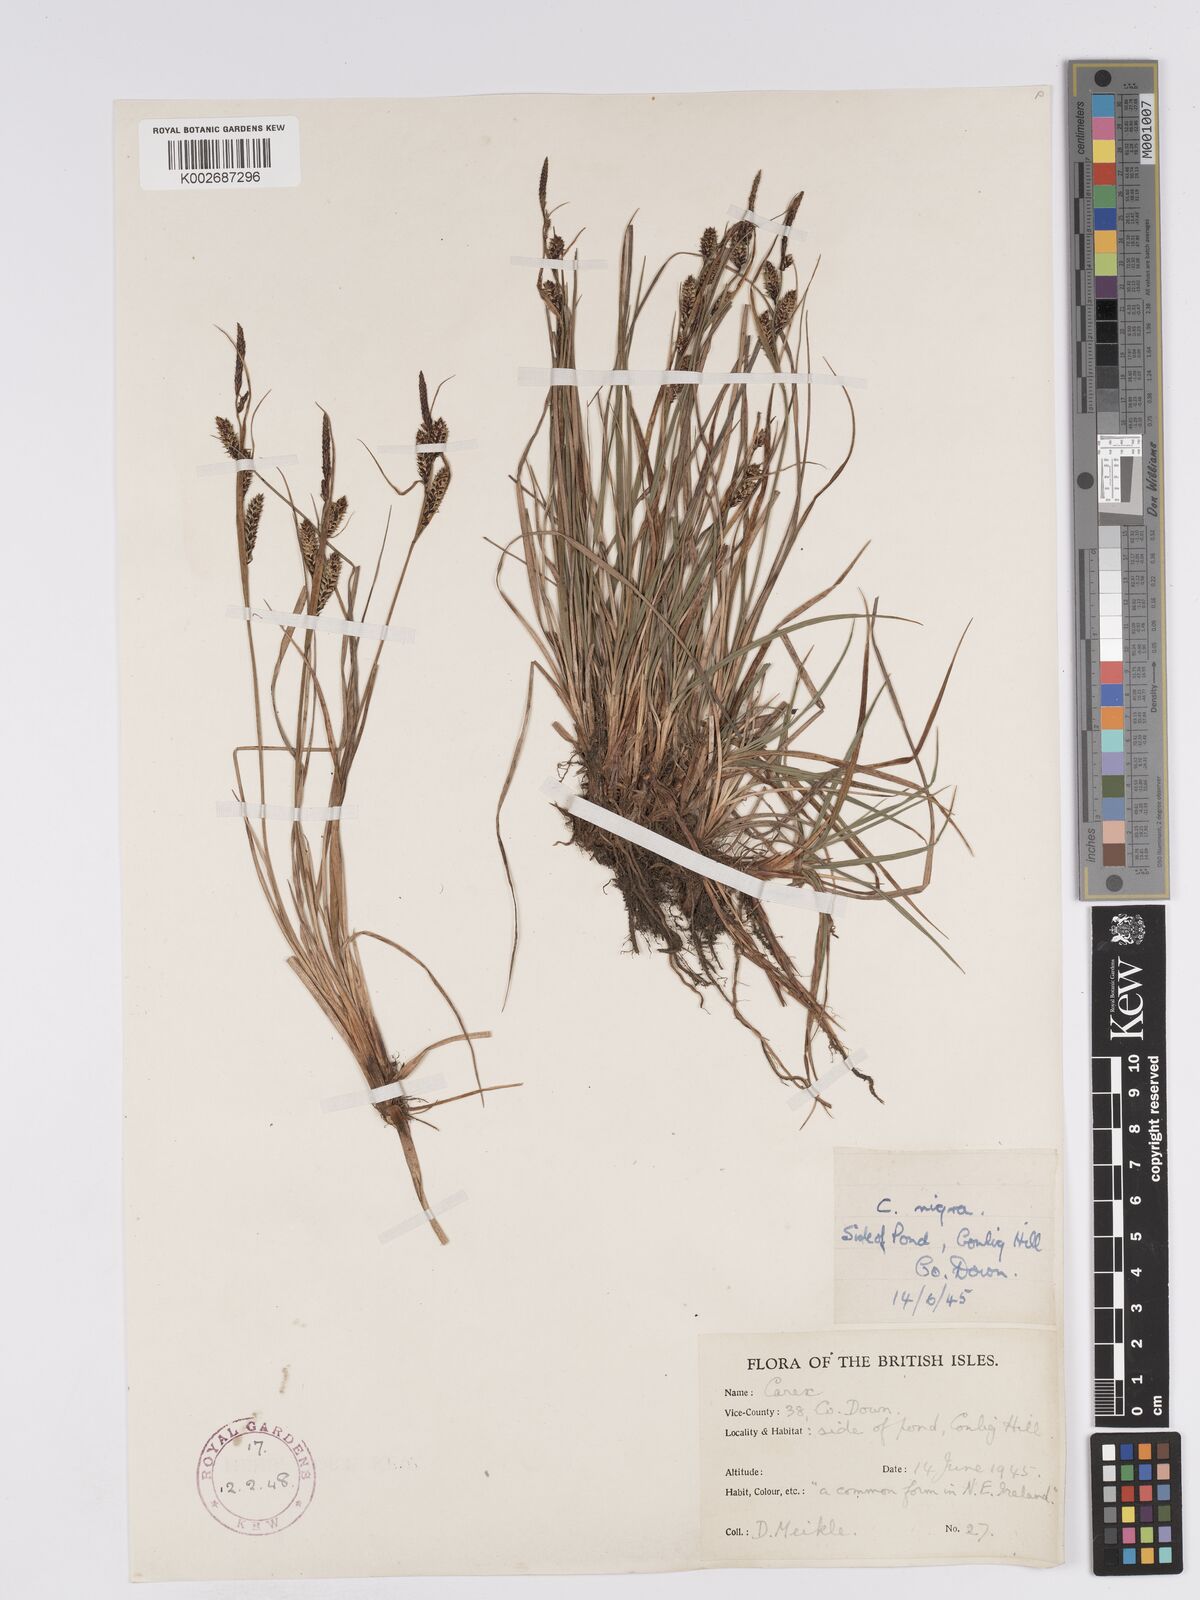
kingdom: Plantae
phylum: Tracheophyta
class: Liliopsida
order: Poales
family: Cyperaceae
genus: Carex
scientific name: Carex nigra
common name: Common sedge
